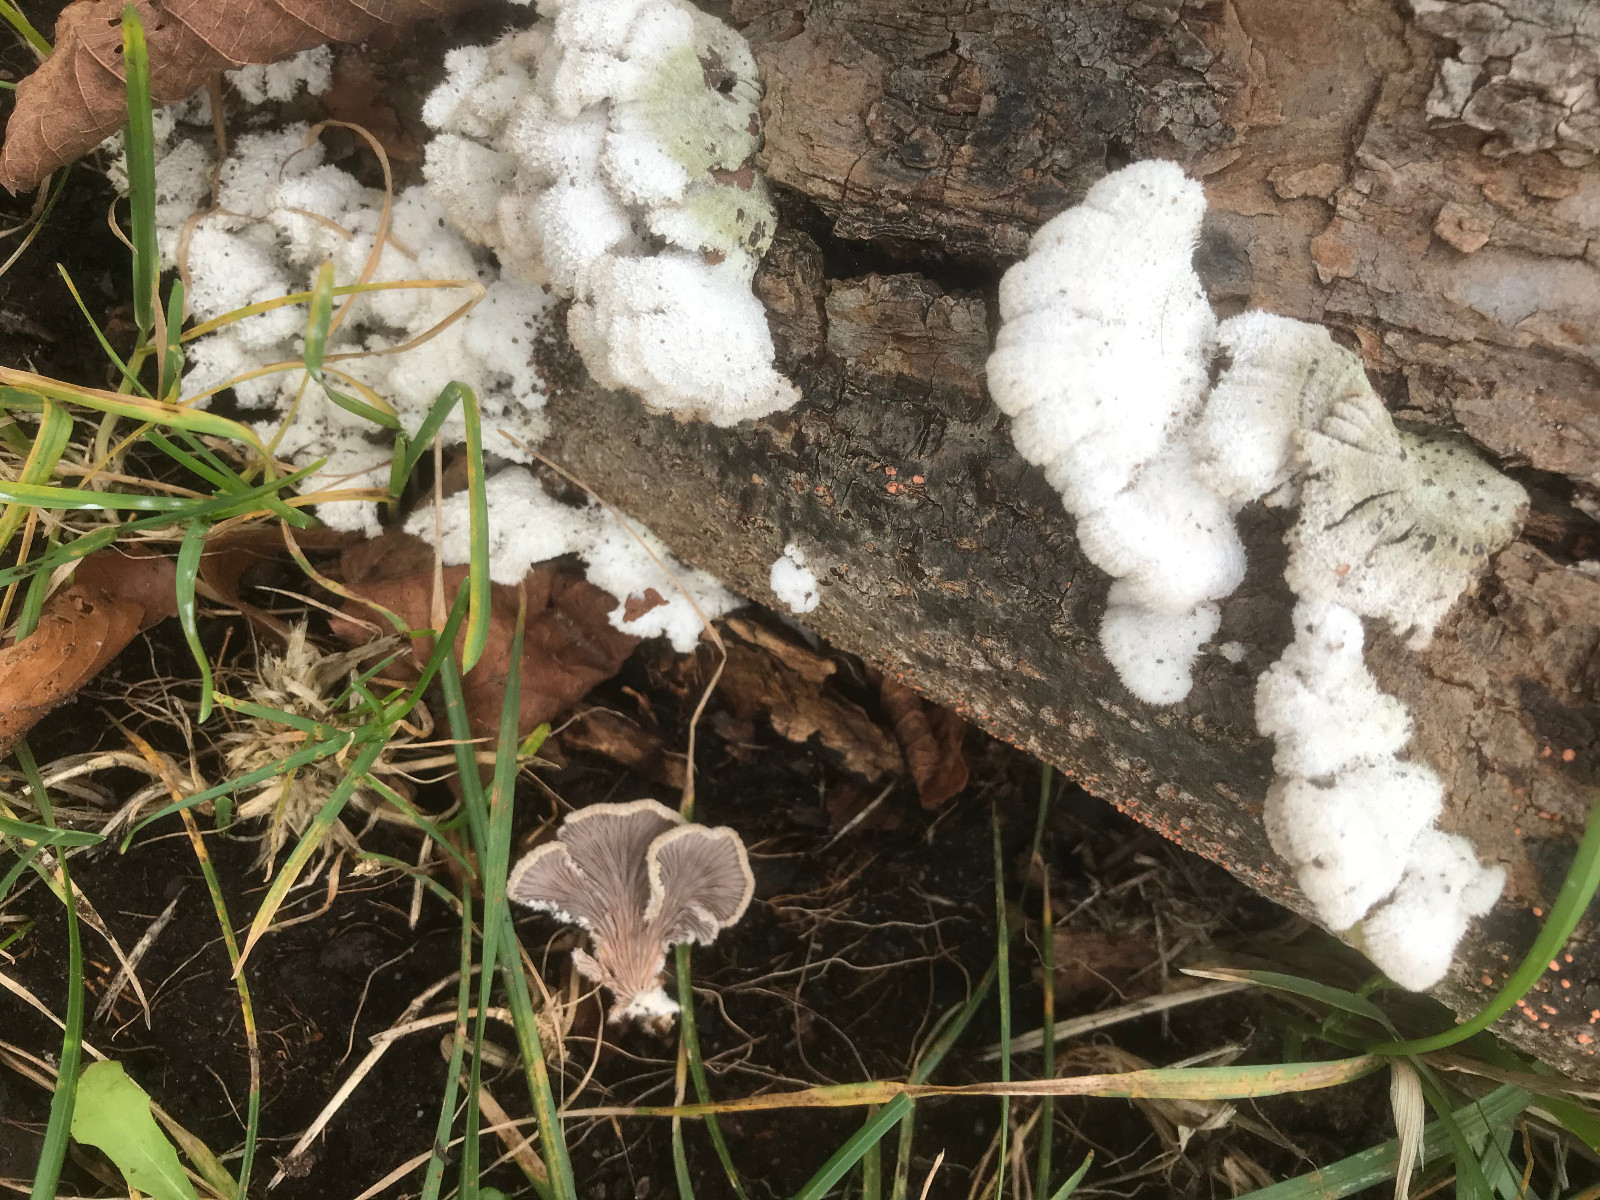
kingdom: Fungi
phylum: Basidiomycota
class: Agaricomycetes
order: Agaricales
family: Schizophyllaceae
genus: Schizophyllum
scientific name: Schizophyllum commune
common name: kløvblad
